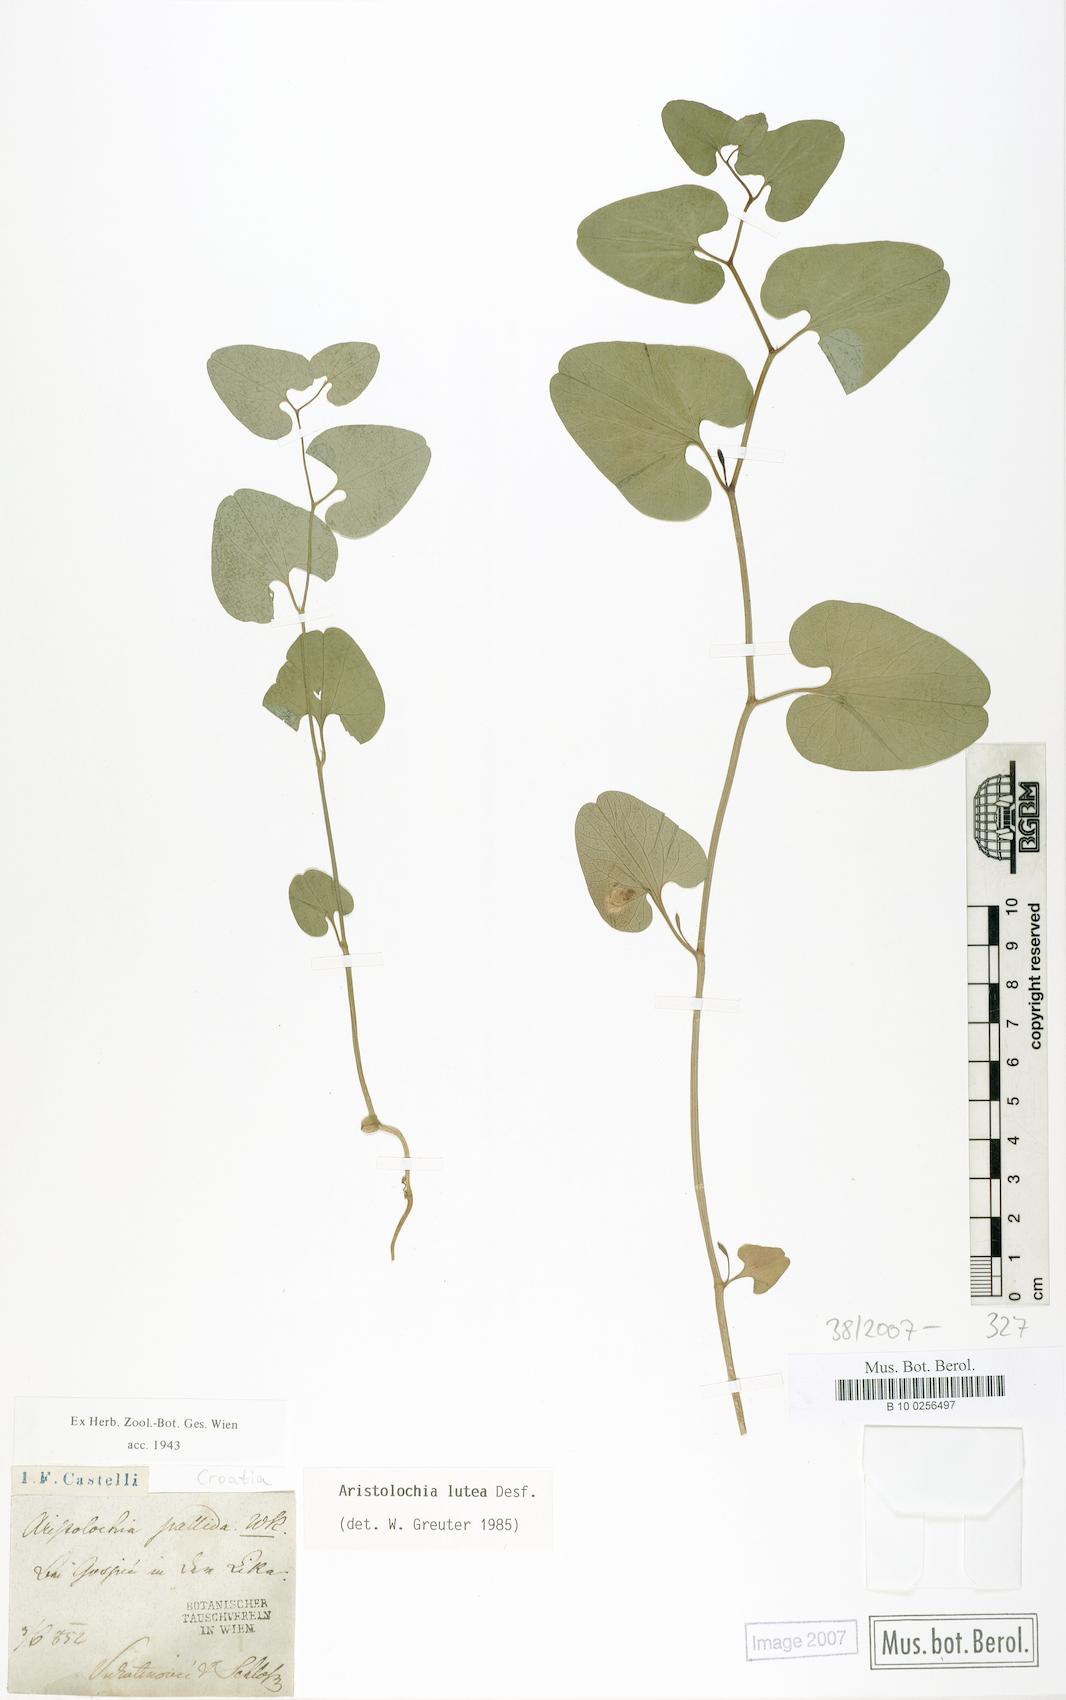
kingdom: Plantae
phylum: Tracheophyta
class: Magnoliopsida
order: Piperales
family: Aristolochiaceae
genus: Aristolochia
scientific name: Aristolochia lutea
